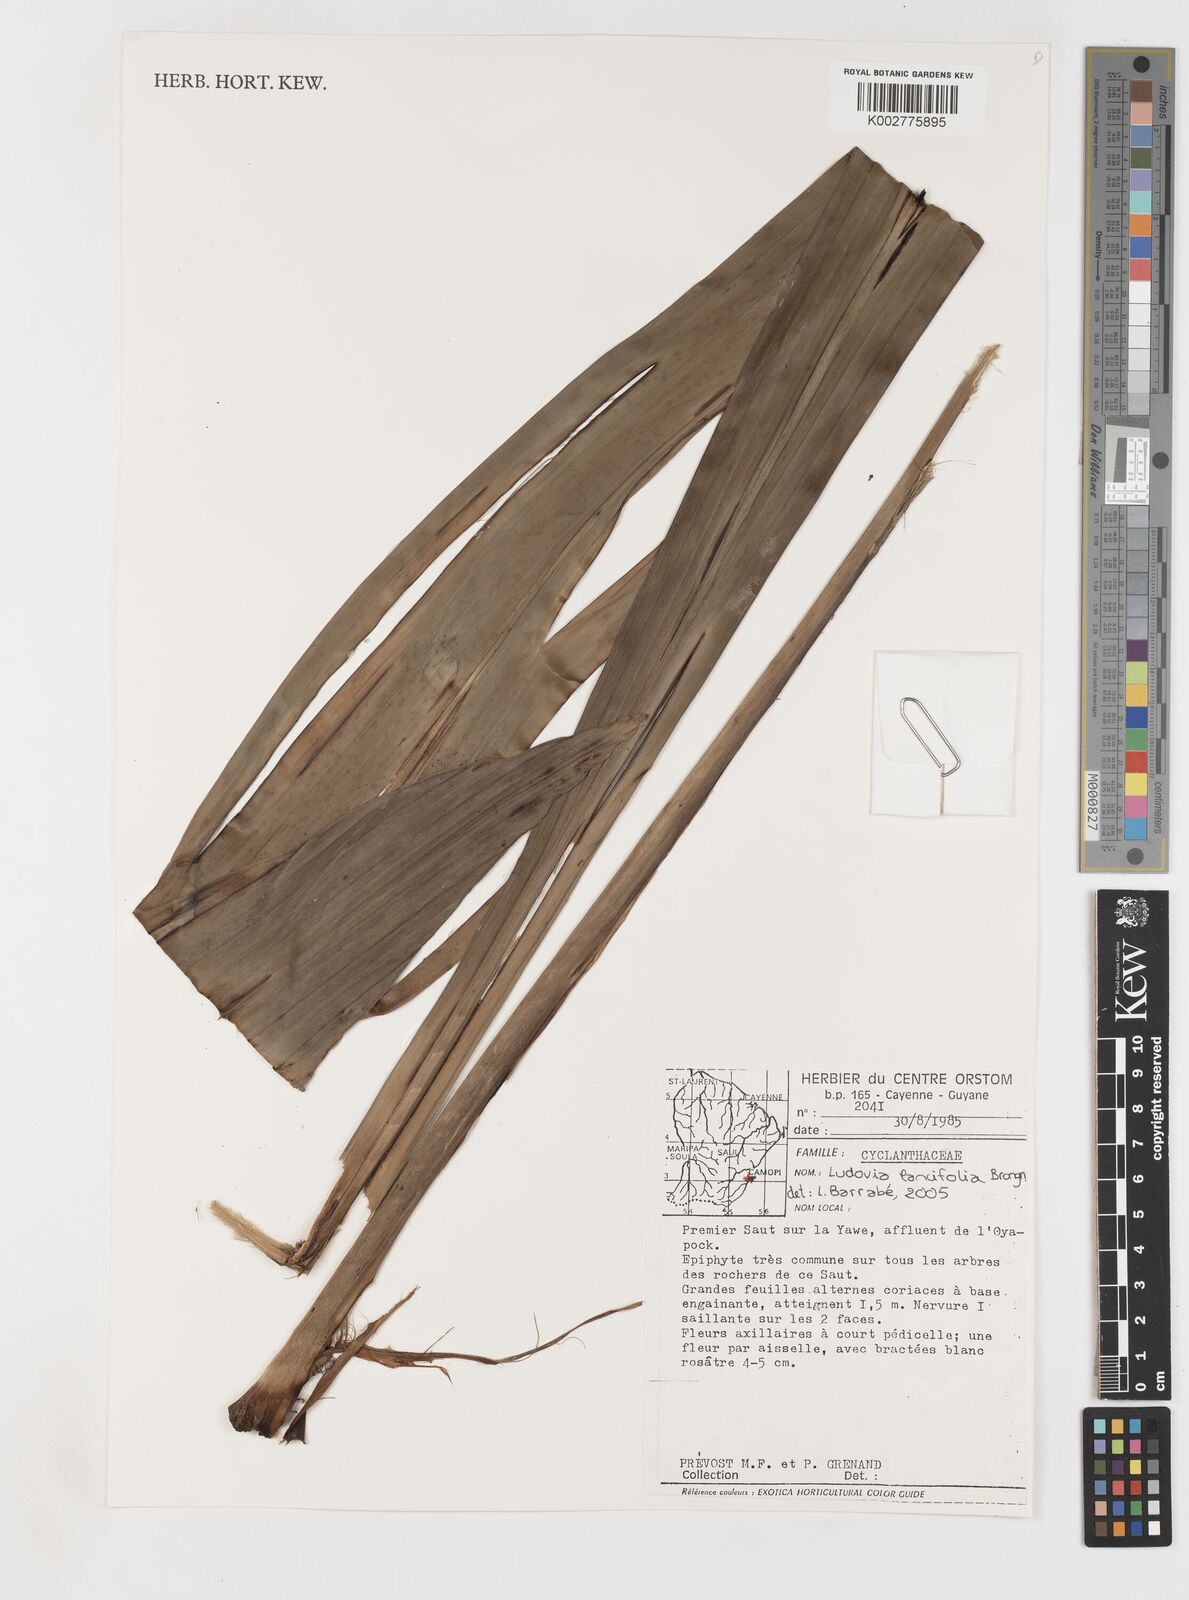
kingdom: Plantae
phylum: Tracheophyta
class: Liliopsida
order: Pandanales
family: Cyclanthaceae
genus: Ludovia
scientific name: Ludovia lancifolia
